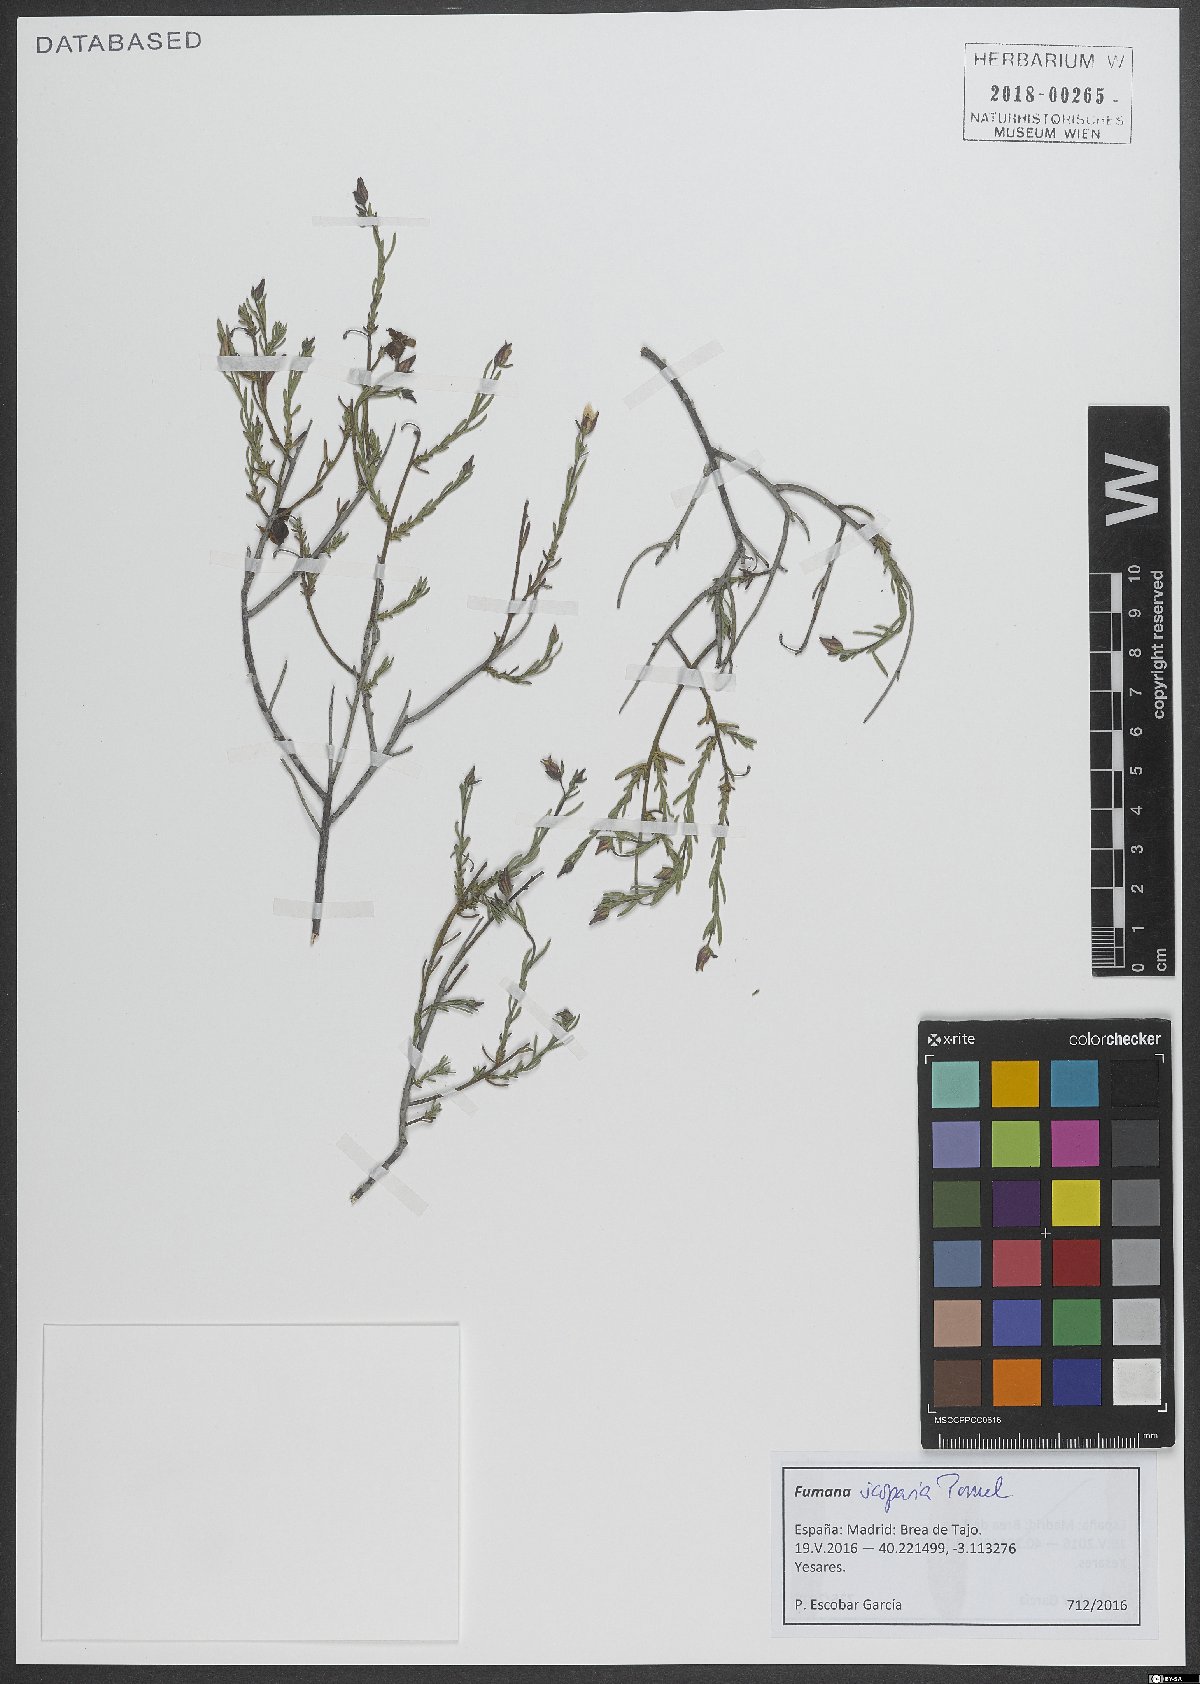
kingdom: Plantae
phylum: Tracheophyta
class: Magnoliopsida
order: Malvales
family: Cistaceae
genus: Fumana
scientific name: Fumana scoparia
